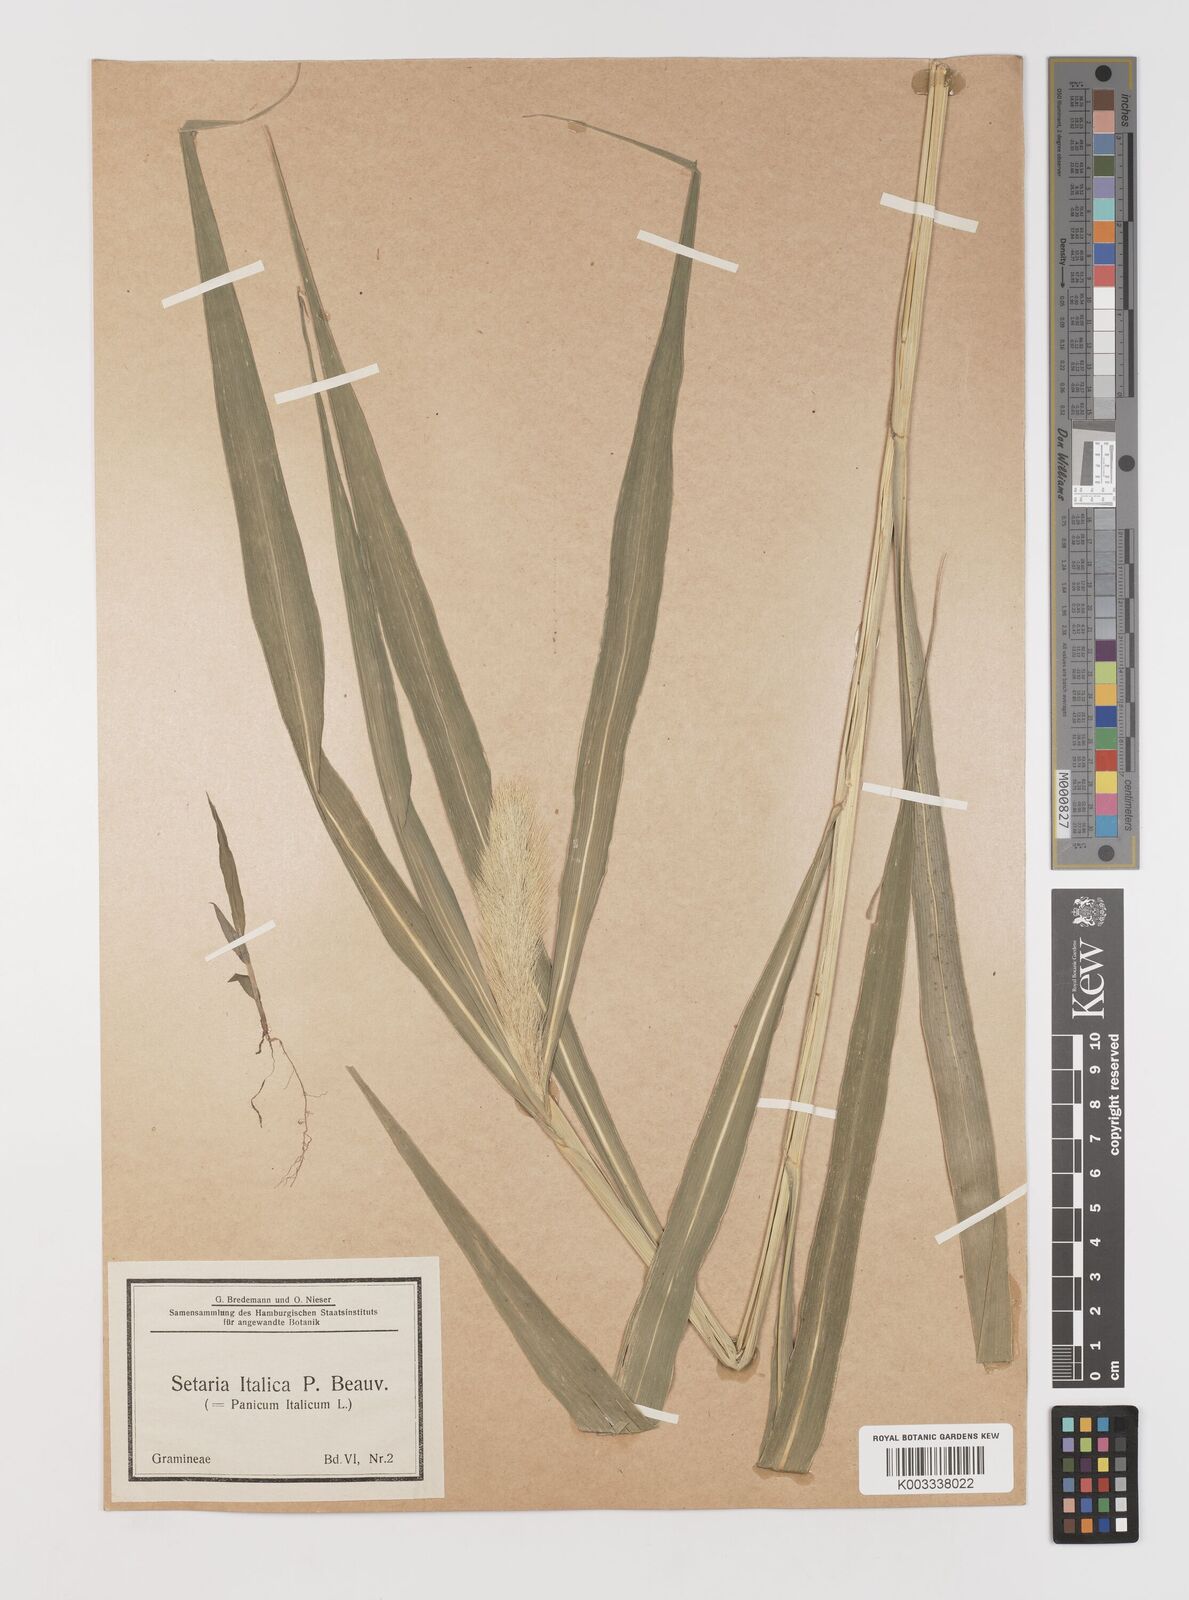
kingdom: Plantae
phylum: Tracheophyta
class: Liliopsida
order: Poales
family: Poaceae
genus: Setaria
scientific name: Setaria italica
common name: Foxtail bristle-grass
